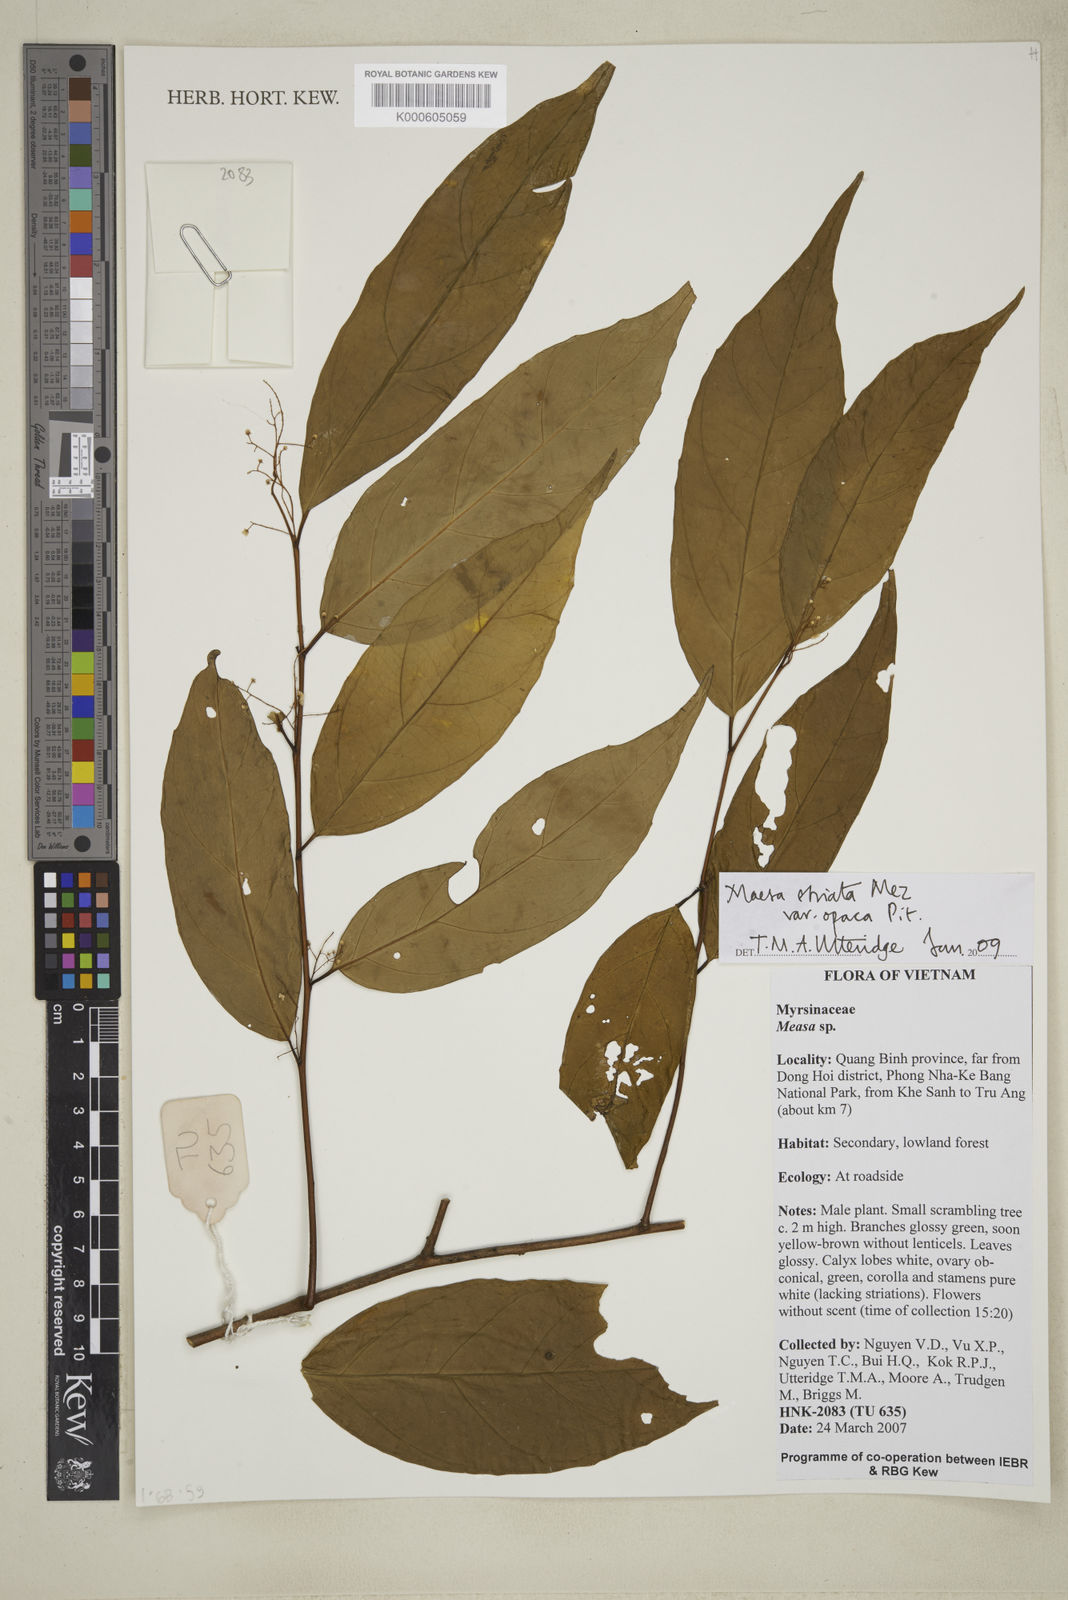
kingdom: Plantae
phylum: Tracheophyta
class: Magnoliopsida
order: Ericales
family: Primulaceae
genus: Maesa
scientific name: Maesa striata
